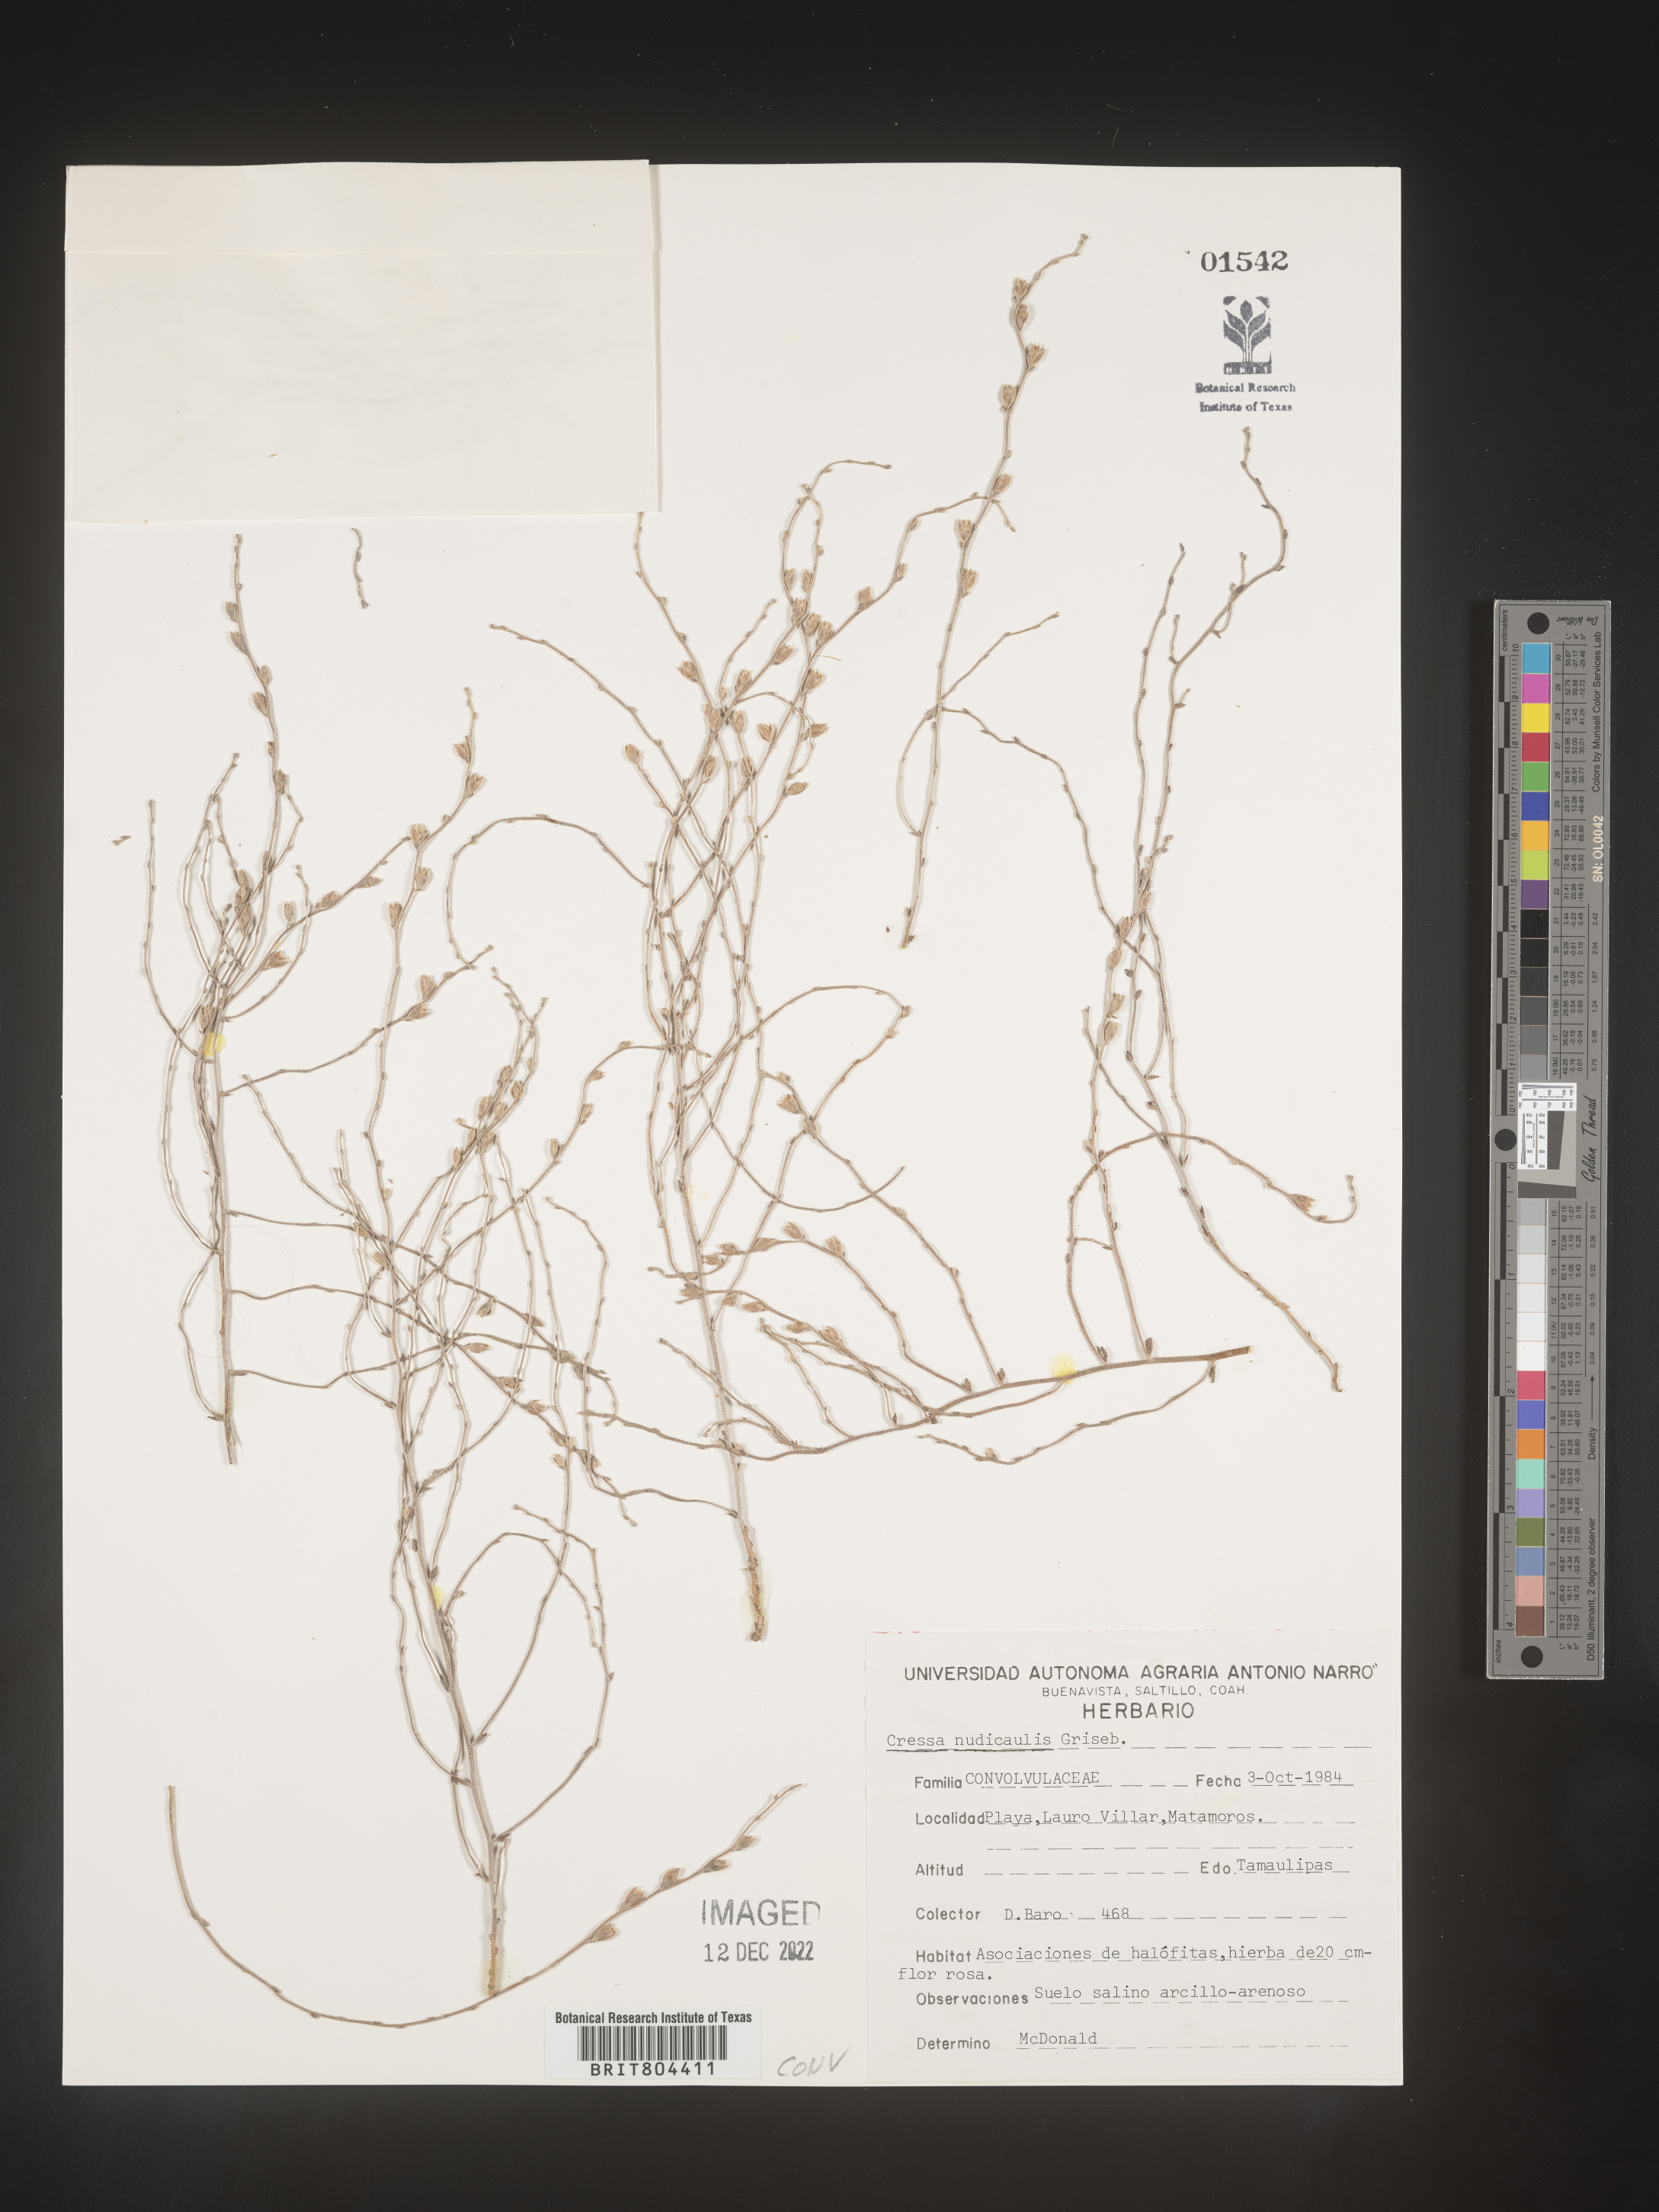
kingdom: Plantae
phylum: Tracheophyta
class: Magnoliopsida
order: Solanales
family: Convolvulaceae
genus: Cressa
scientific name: Cressa
